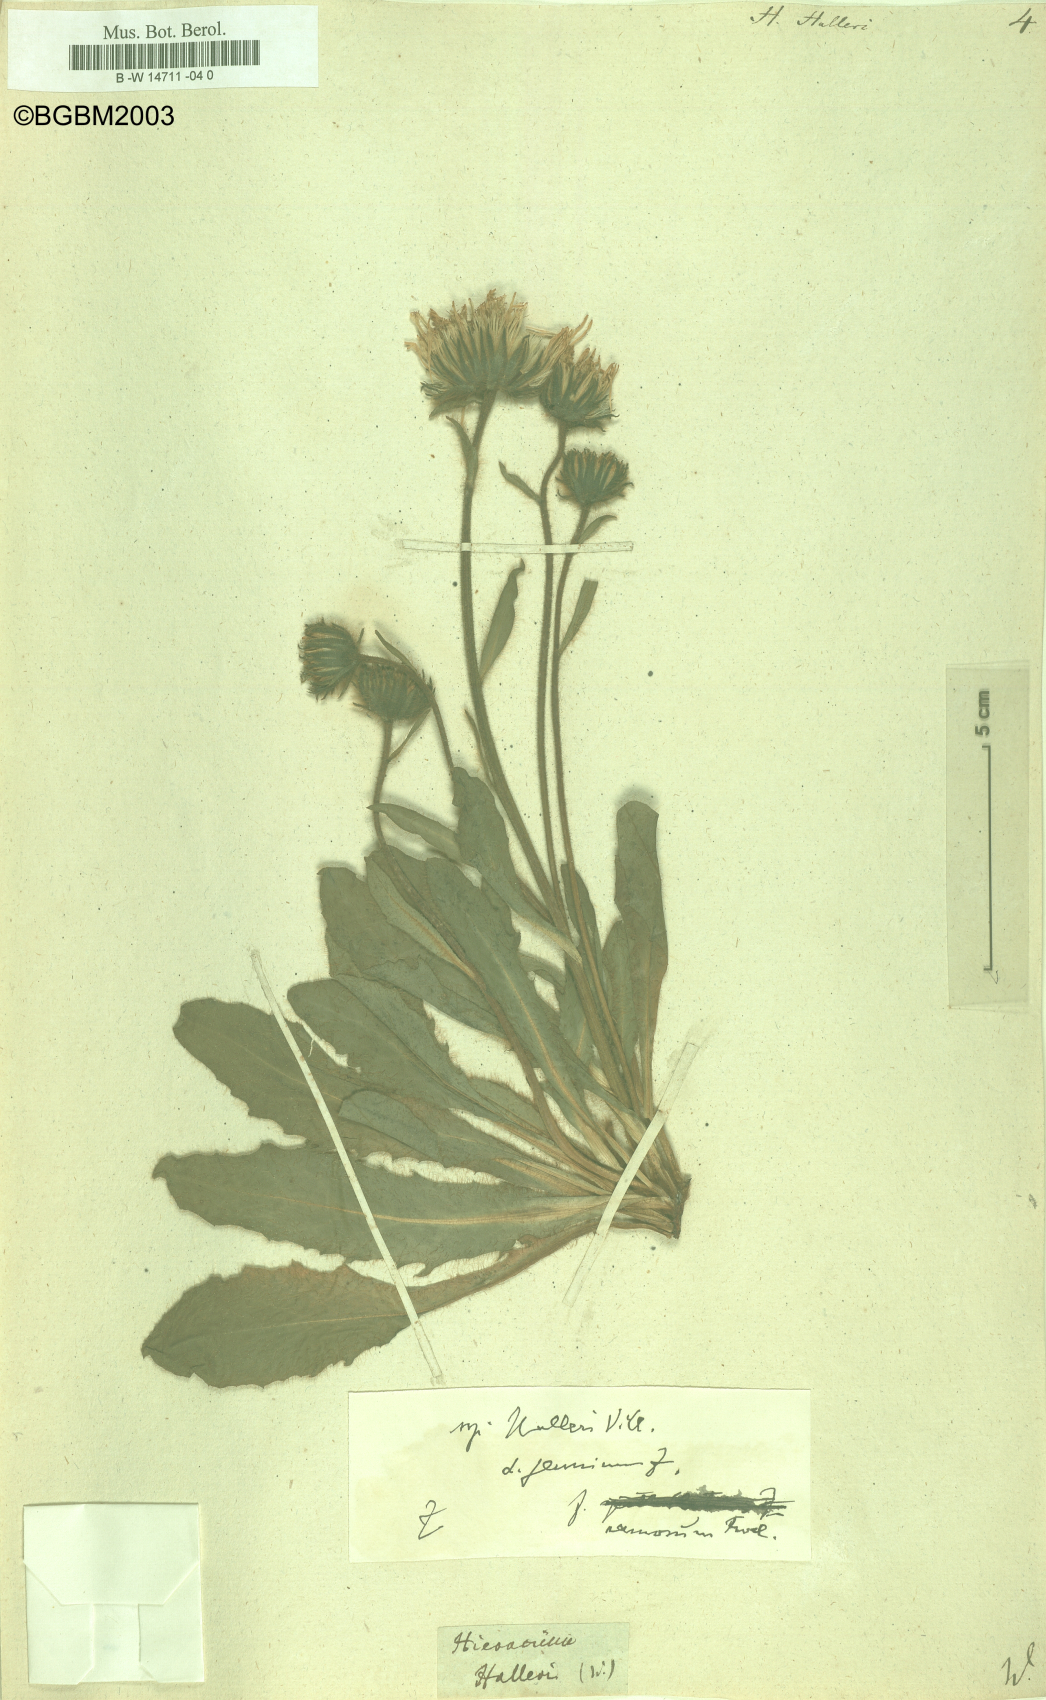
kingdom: Plantae
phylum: Tracheophyta
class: Magnoliopsida
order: Asterales
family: Asteraceae
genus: Hieracium
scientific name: Hieracium halleri
